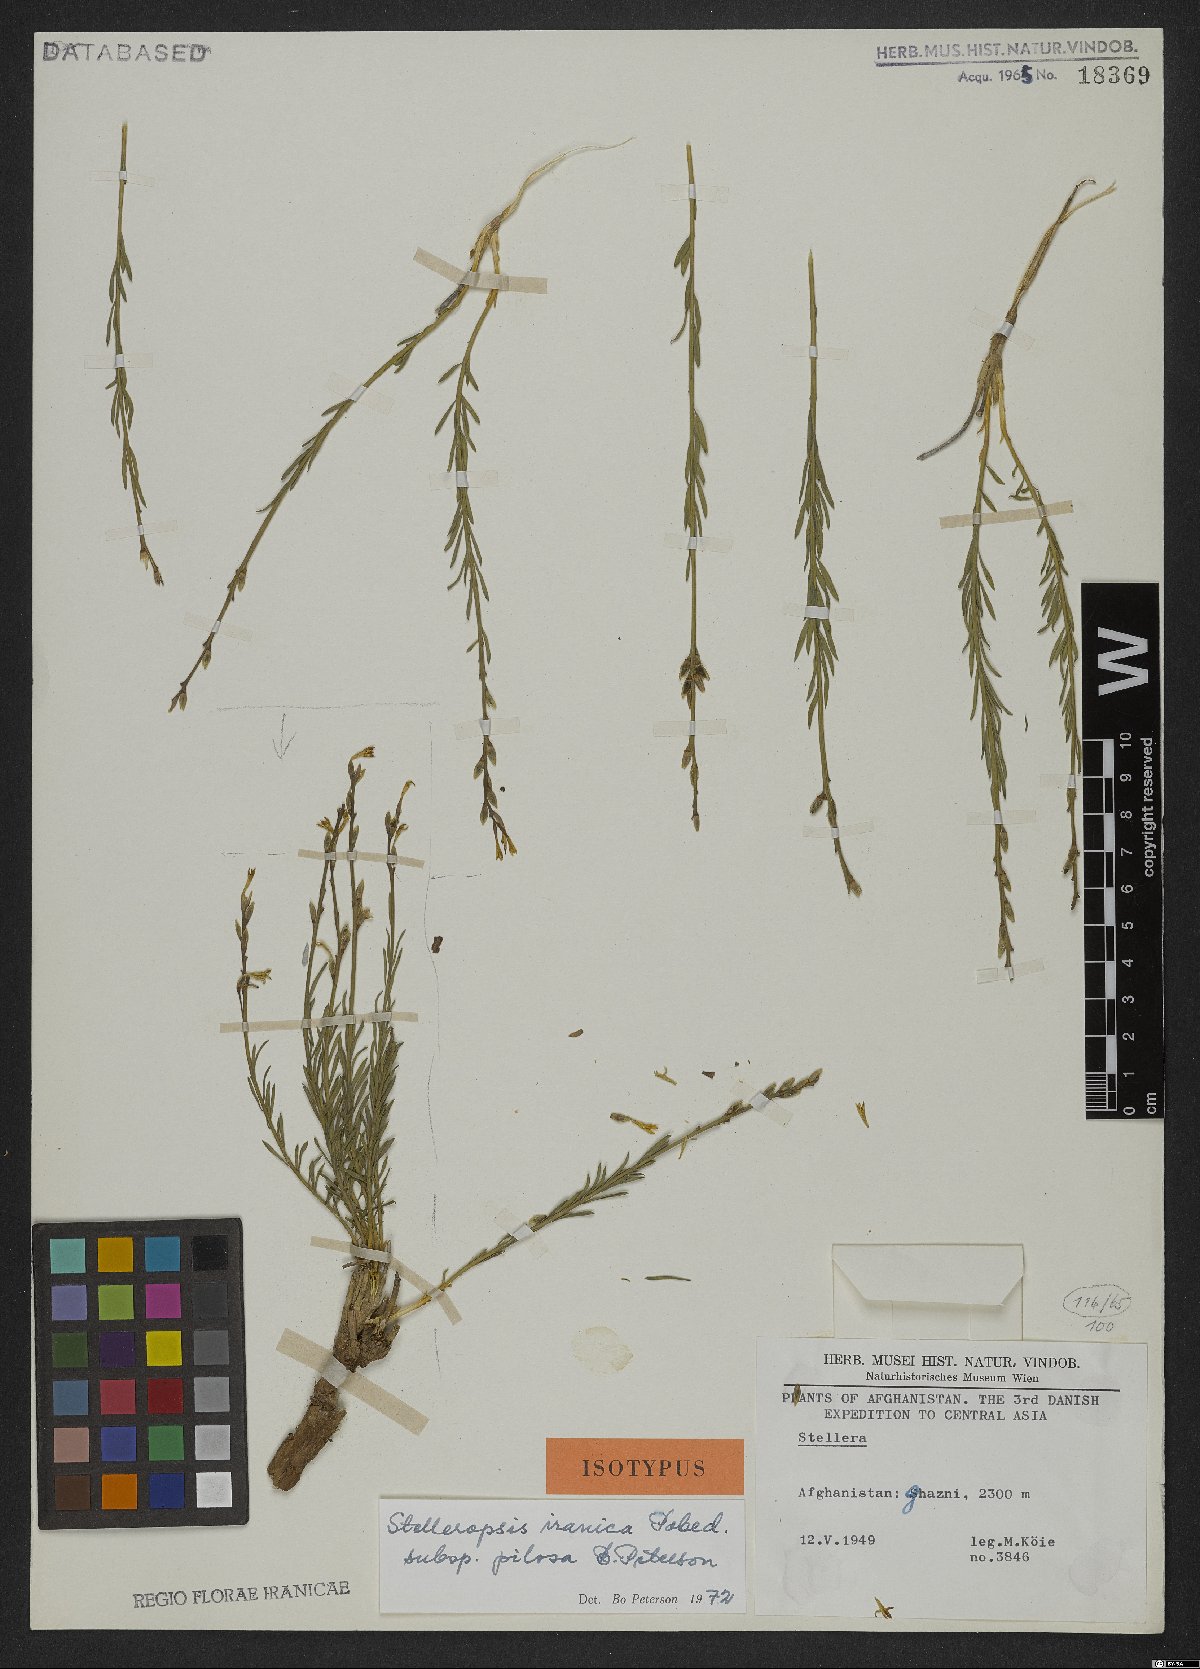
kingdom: Plantae
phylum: Tracheophyta
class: Magnoliopsida
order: Malvales
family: Thymelaeaceae
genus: Diarthron
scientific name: Diarthron iranicum
